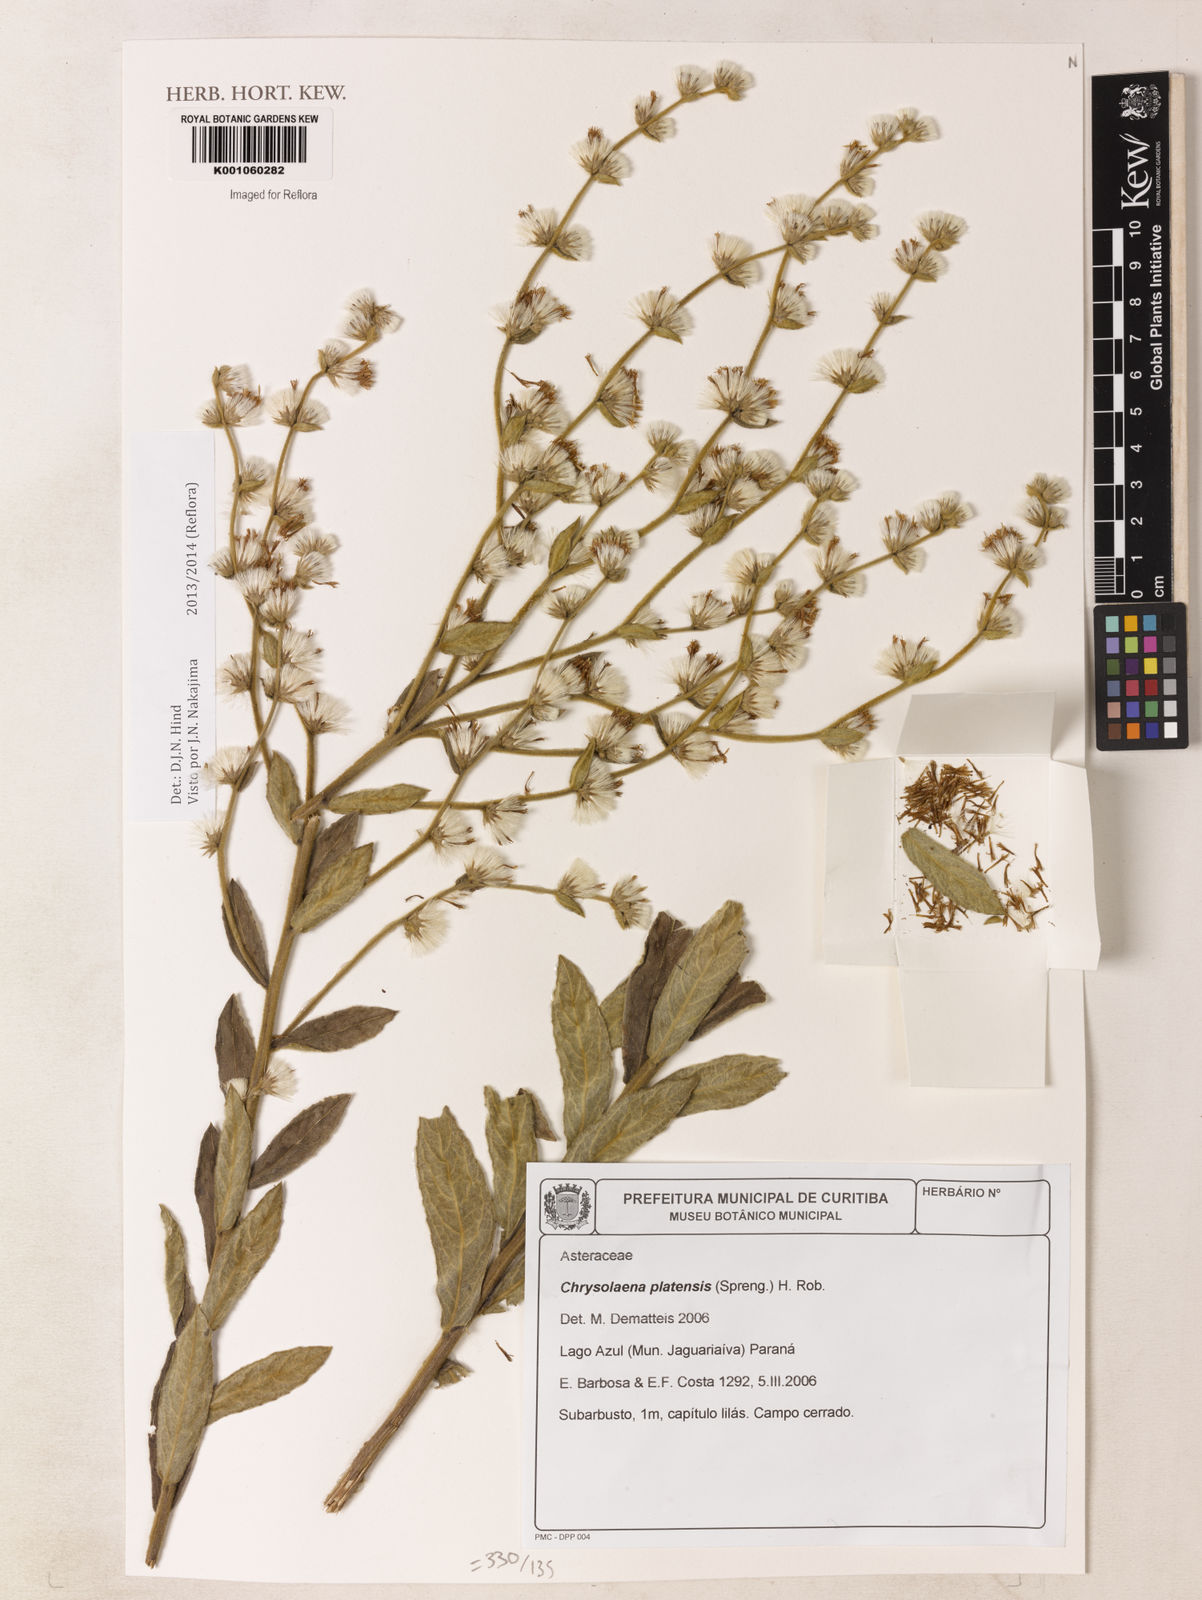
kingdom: Plantae
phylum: Tracheophyta
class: Magnoliopsida
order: Asterales
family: Asteraceae
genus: Chrysolaena
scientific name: Chrysolaena platensis
